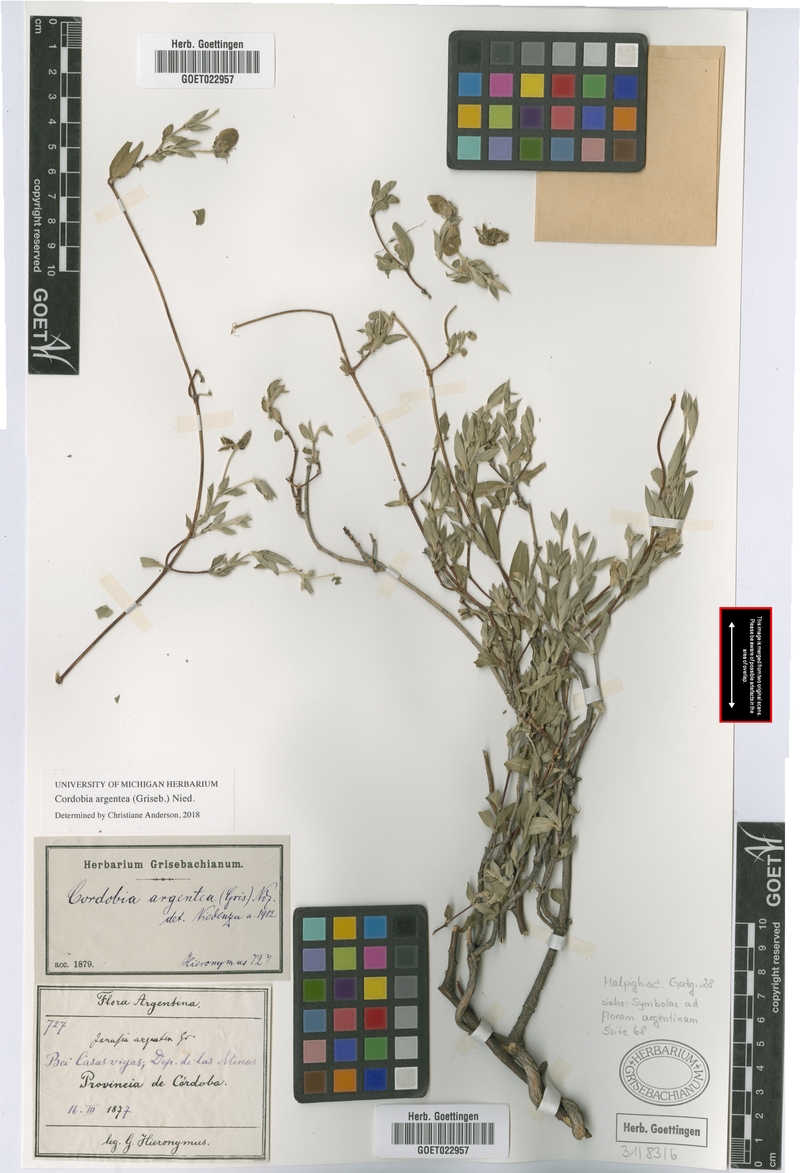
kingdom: Plantae
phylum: Tracheophyta
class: Magnoliopsida
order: Malpighiales
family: Malpighiaceae
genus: Cordobia
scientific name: Cordobia argentea
